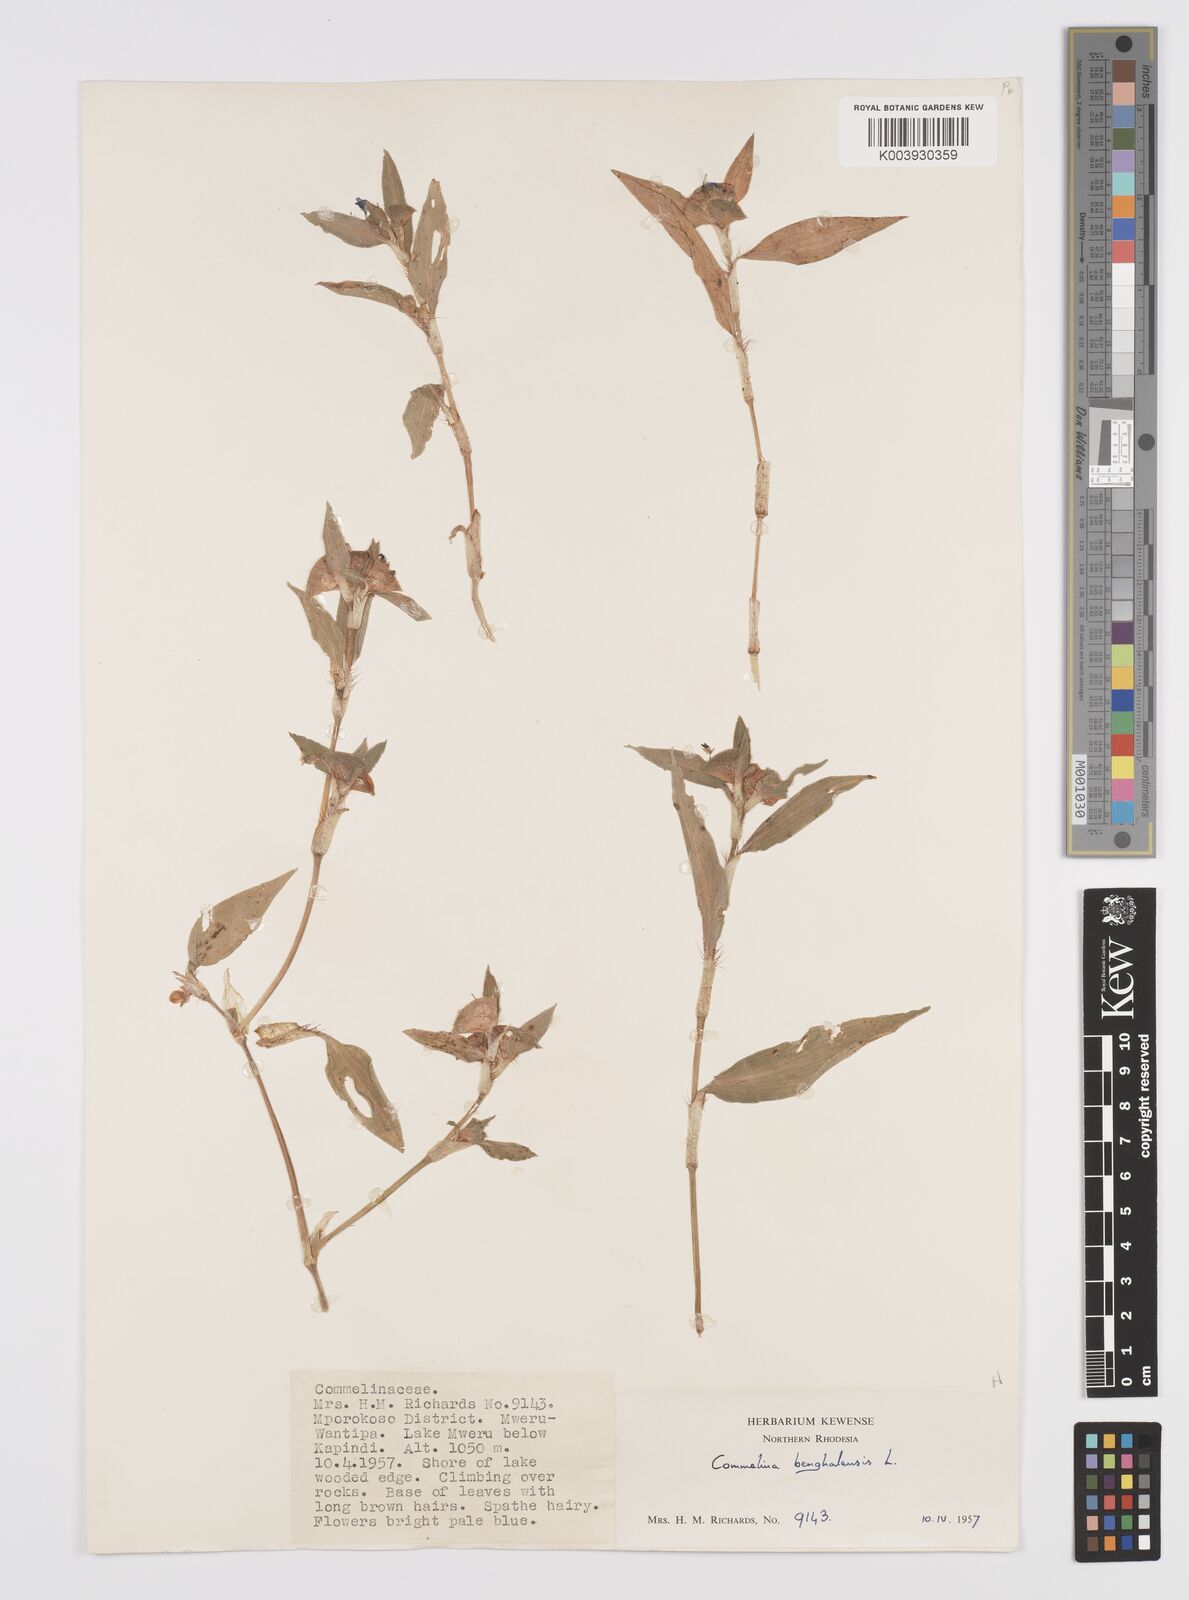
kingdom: Plantae
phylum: Tracheophyta
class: Liliopsida
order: Commelinales
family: Commelinaceae
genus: Commelina
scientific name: Commelina benghalensis
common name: Jio
